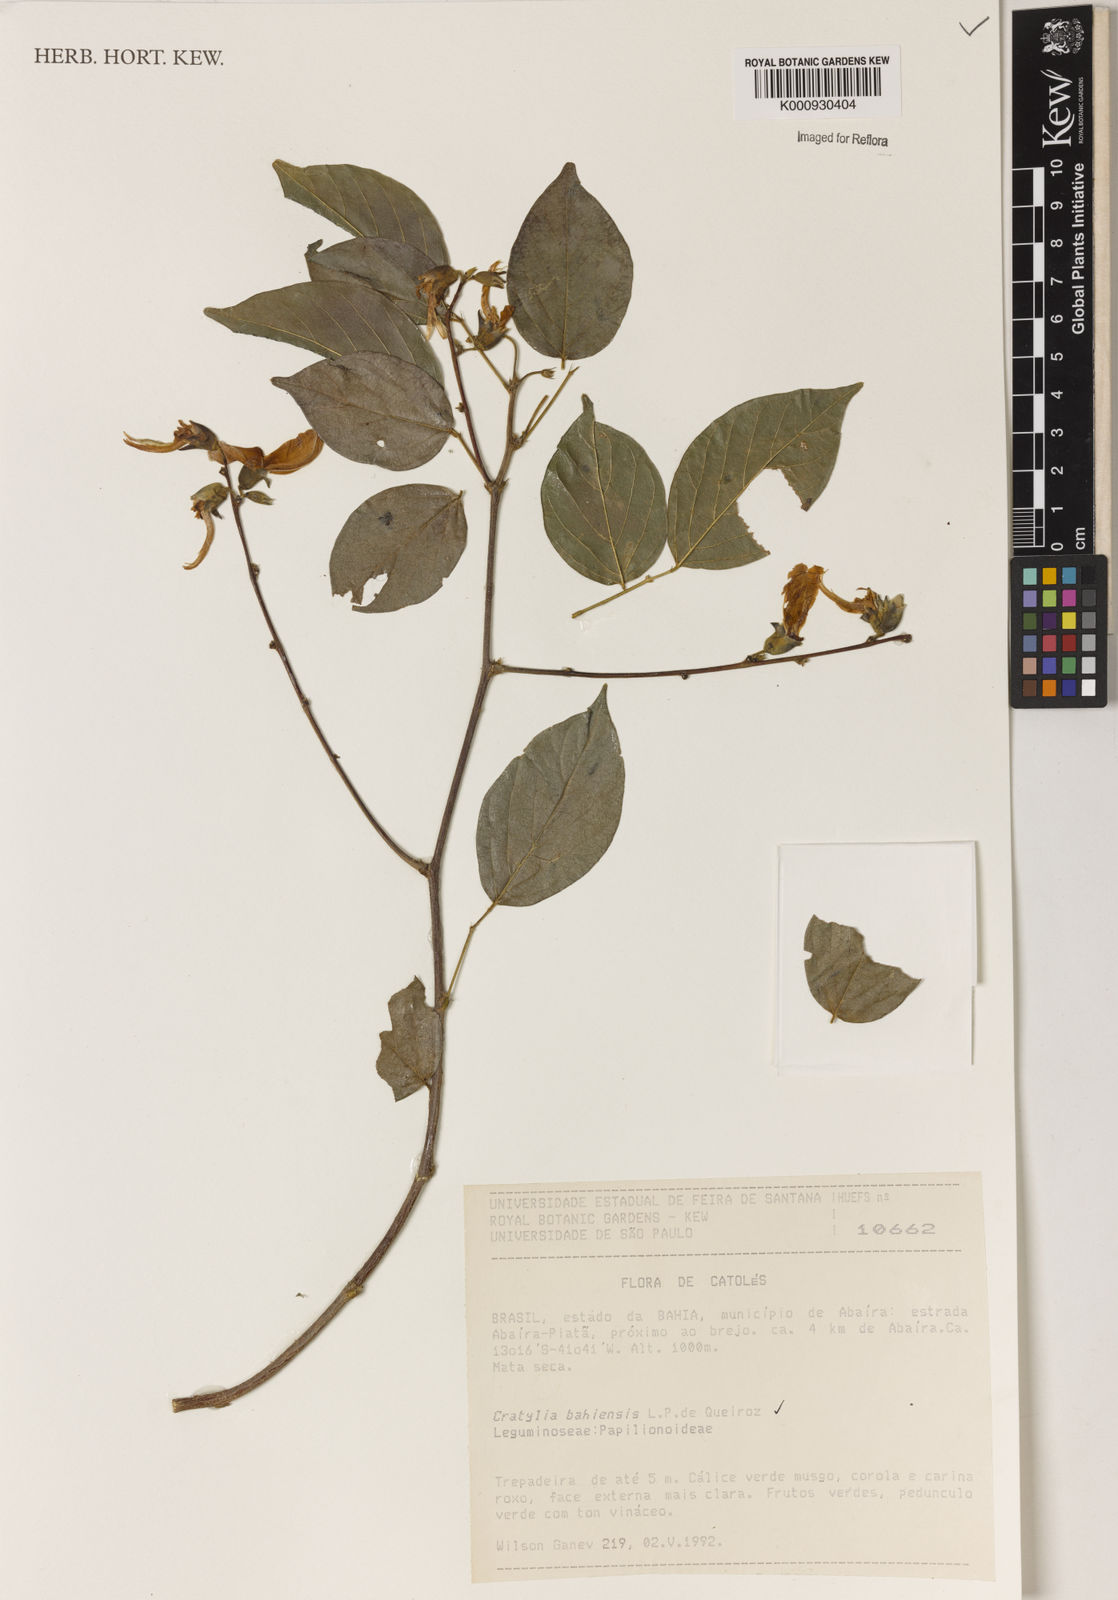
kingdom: Plantae
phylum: Tracheophyta
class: Magnoliopsida
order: Fabales
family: Fabaceae
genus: Cratylia
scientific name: Cratylia bahiensis
